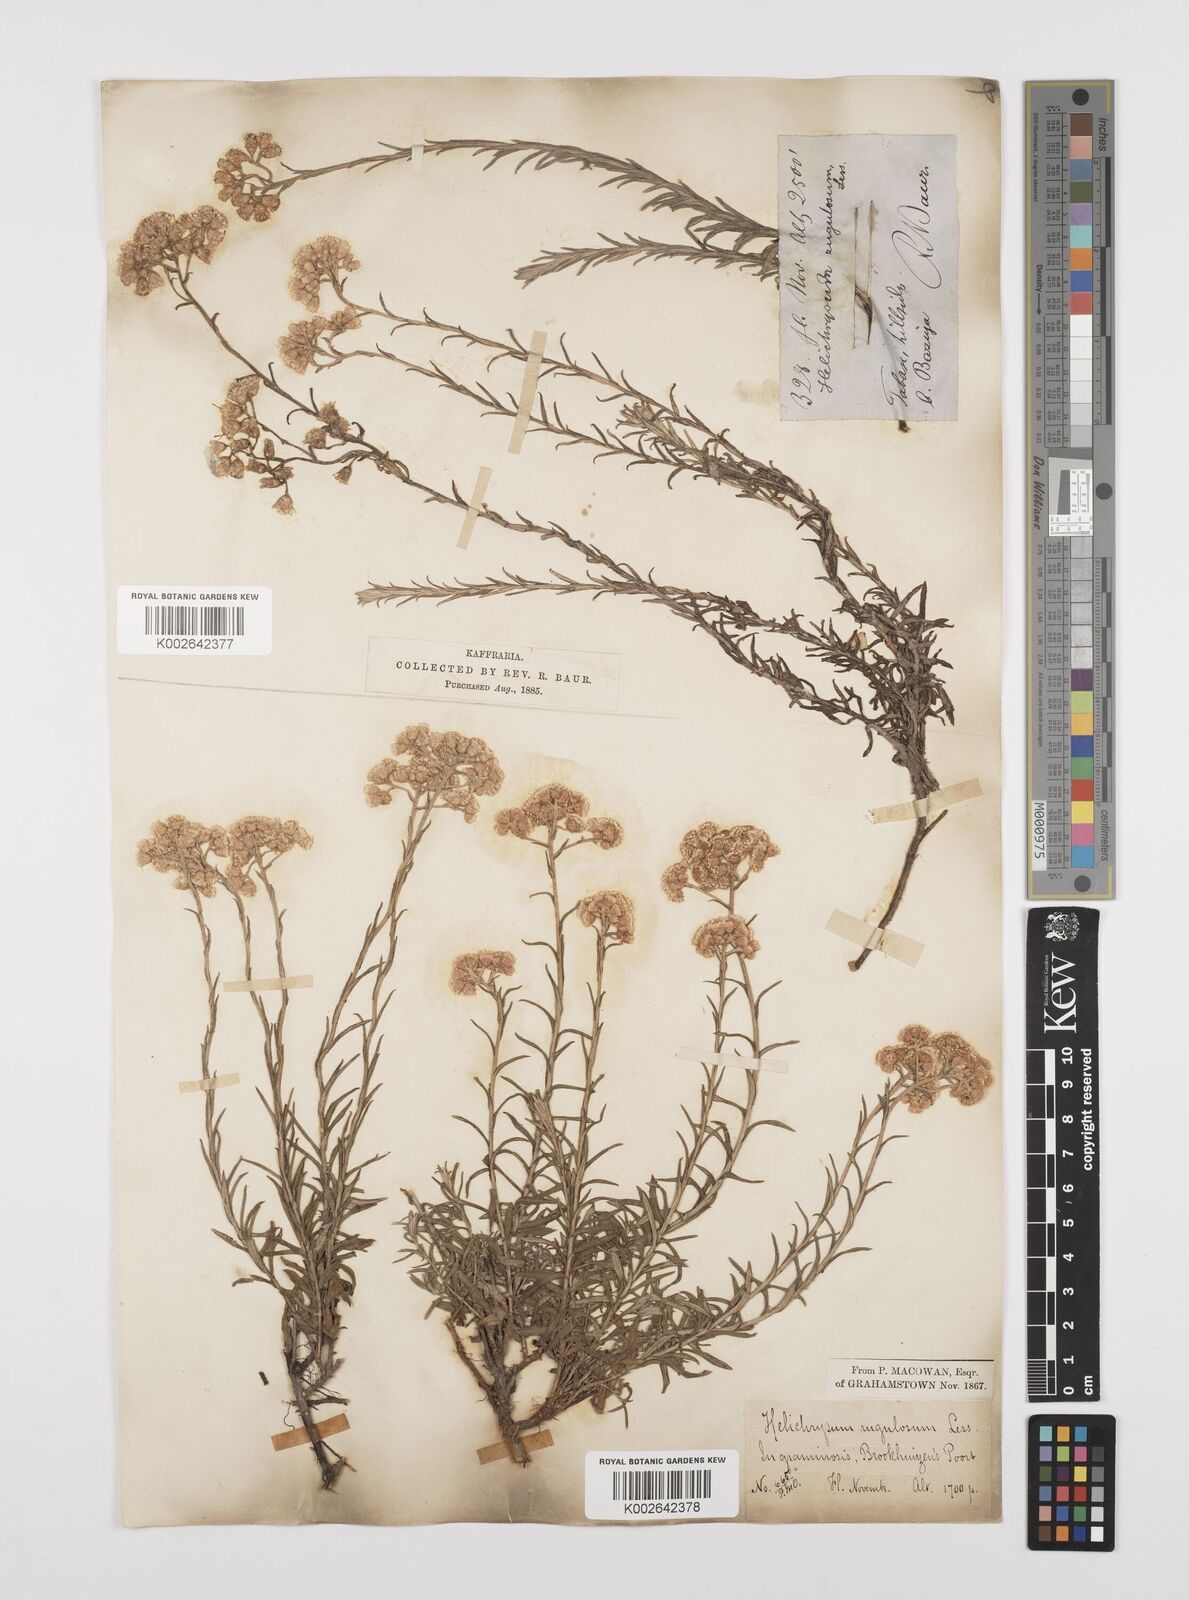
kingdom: Plantae
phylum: Tracheophyta
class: Magnoliopsida
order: Asterales
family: Asteraceae
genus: Helichrysum
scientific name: Helichrysum rugulosum
